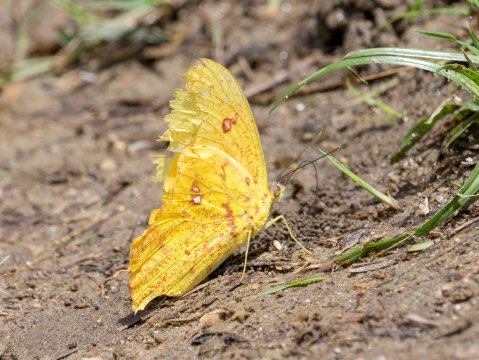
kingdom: Animalia
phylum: Arthropoda
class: Insecta
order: Lepidoptera
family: Pieridae
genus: Phoebis
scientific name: Phoebis neocypris
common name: Tailed Sulphur
